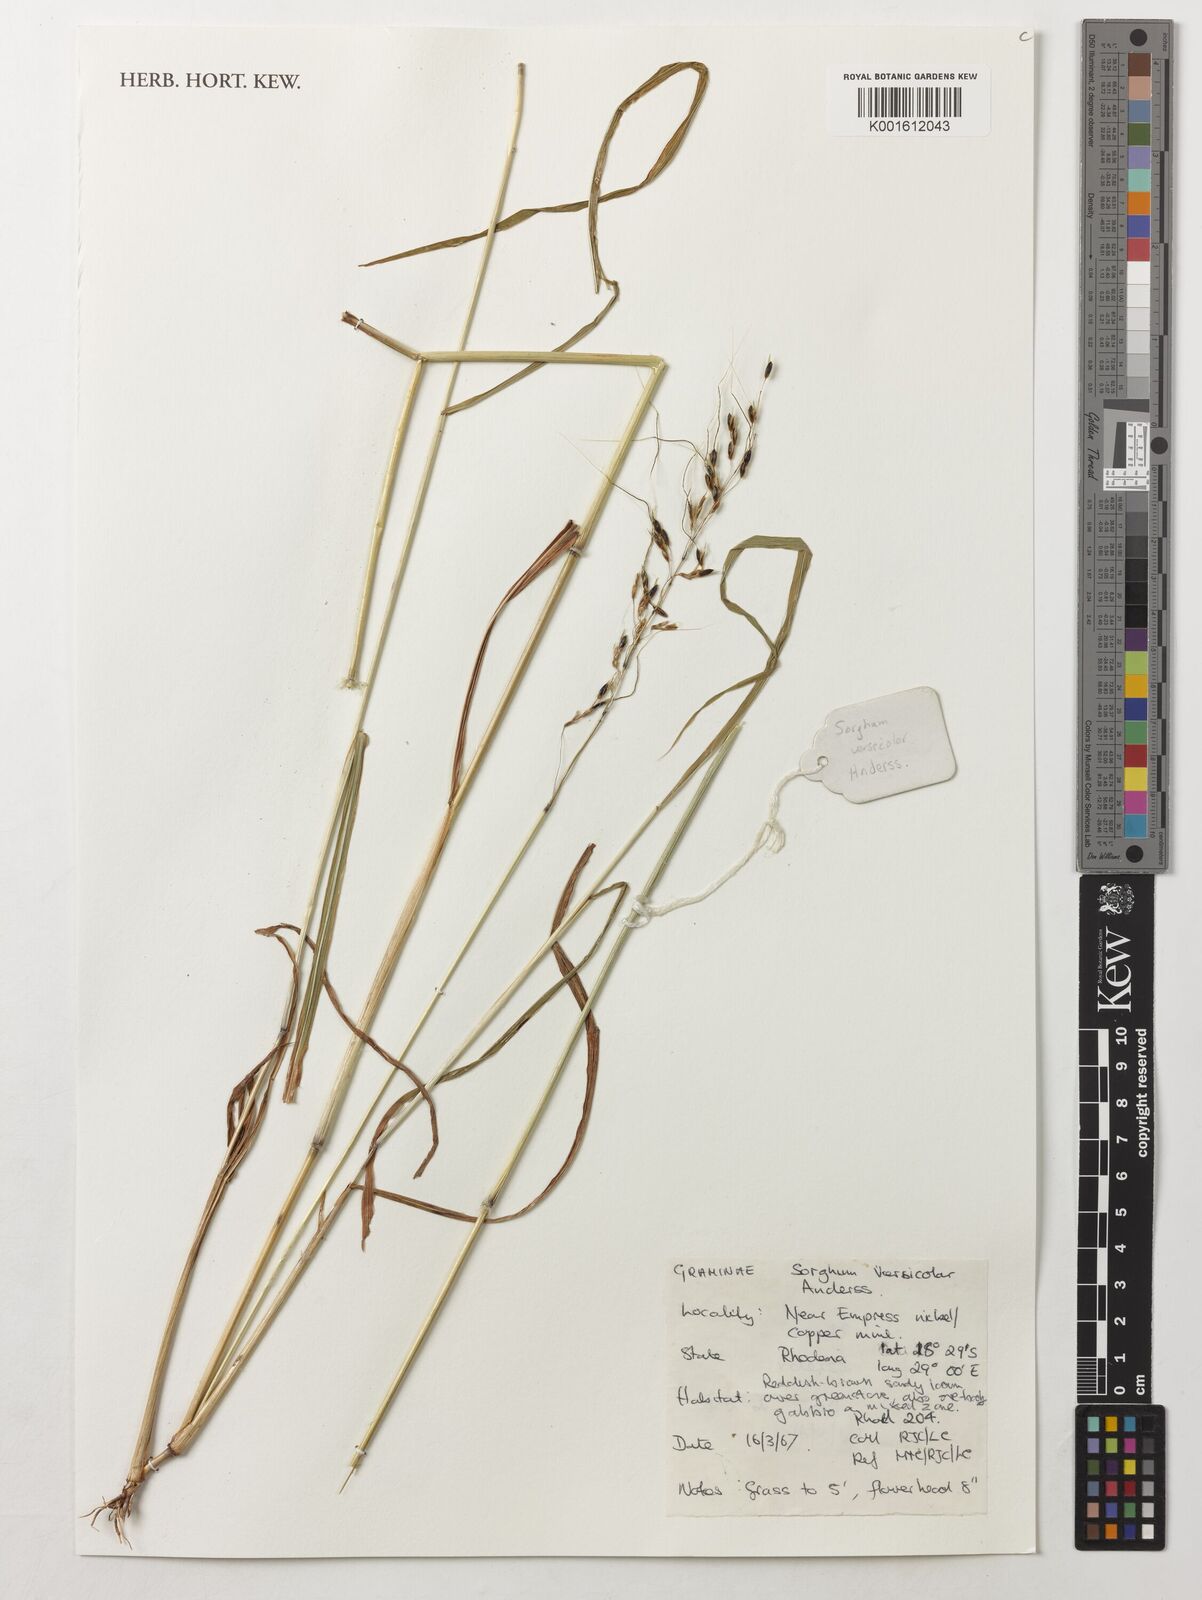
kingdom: Plantae
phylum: Tracheophyta
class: Liliopsida
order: Poales
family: Poaceae
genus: Sarga
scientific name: Sarga versicolor
